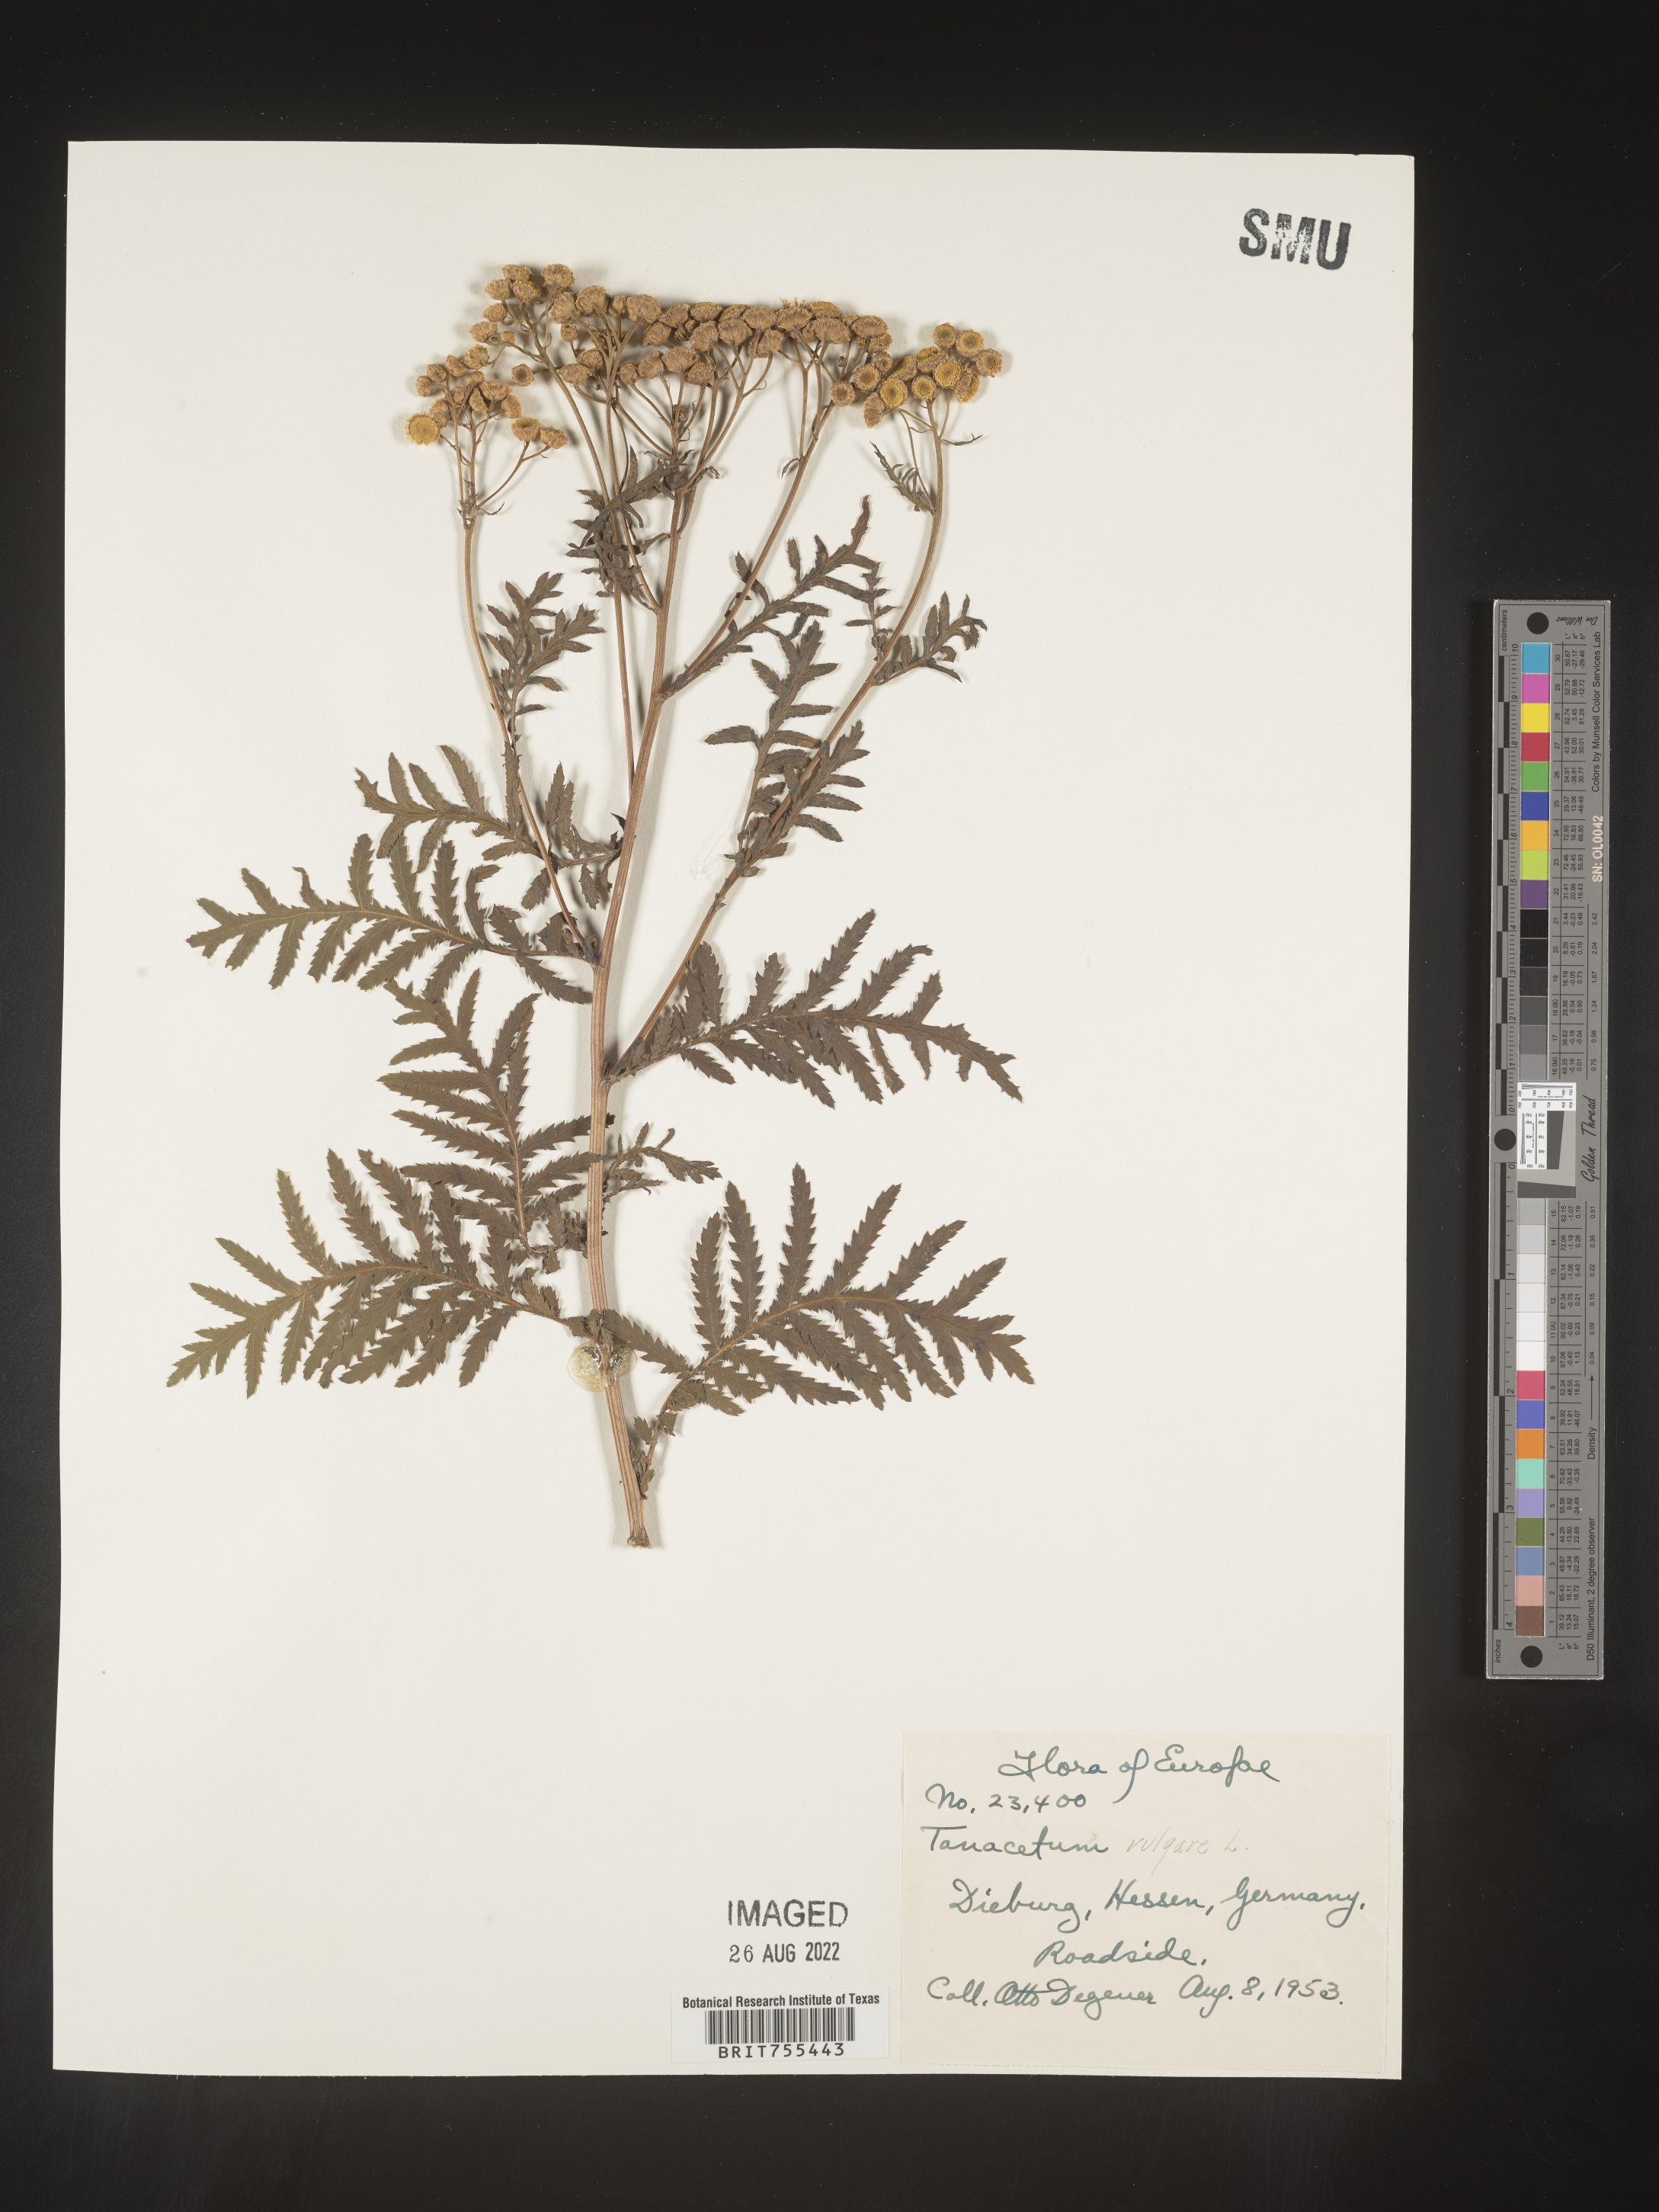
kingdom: Plantae
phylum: Tracheophyta
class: Magnoliopsida
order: Asterales
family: Asteraceae
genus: Tanacetum
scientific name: Tanacetum
